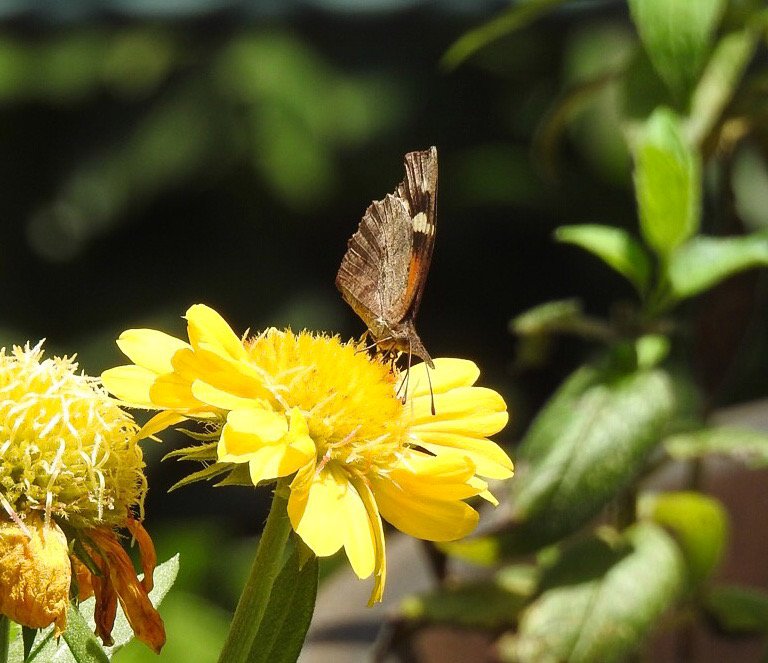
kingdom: Animalia
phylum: Arthropoda
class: Insecta
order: Lepidoptera
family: Nymphalidae
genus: Libytheana
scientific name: Libytheana carinenta
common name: American Snout
